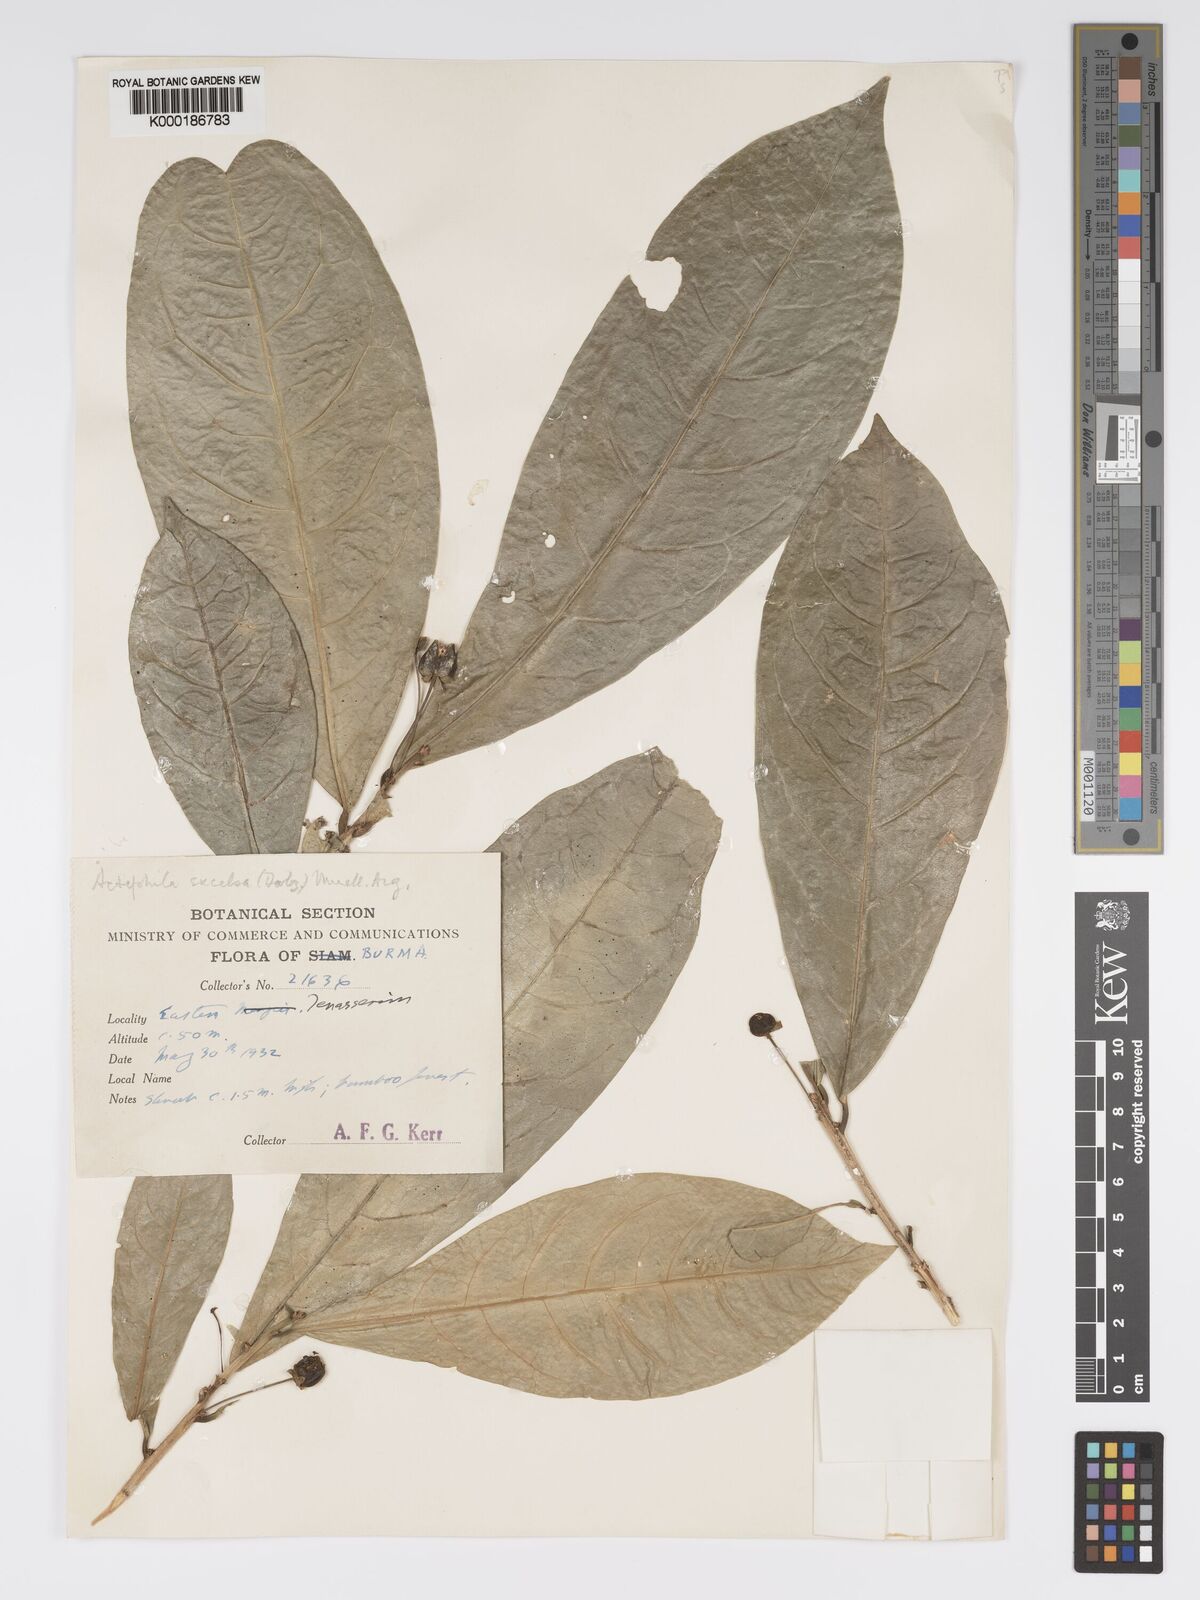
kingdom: Plantae
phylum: Tracheophyta
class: Magnoliopsida
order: Malpighiales
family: Phyllanthaceae
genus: Actephila
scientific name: Actephila excelsa
